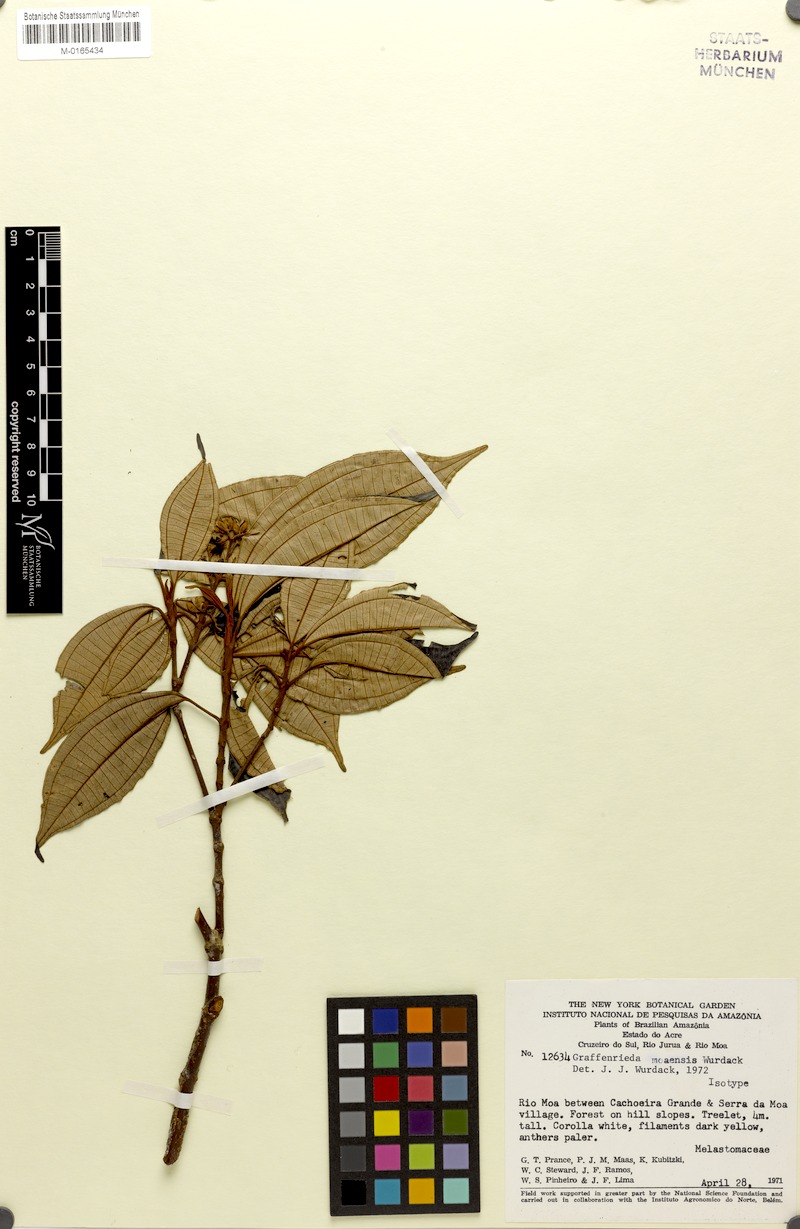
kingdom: Plantae
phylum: Tracheophyta
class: Magnoliopsida
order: Myrtales
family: Melastomataceae
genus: Graffenrieda
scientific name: Graffenrieda moaensis
